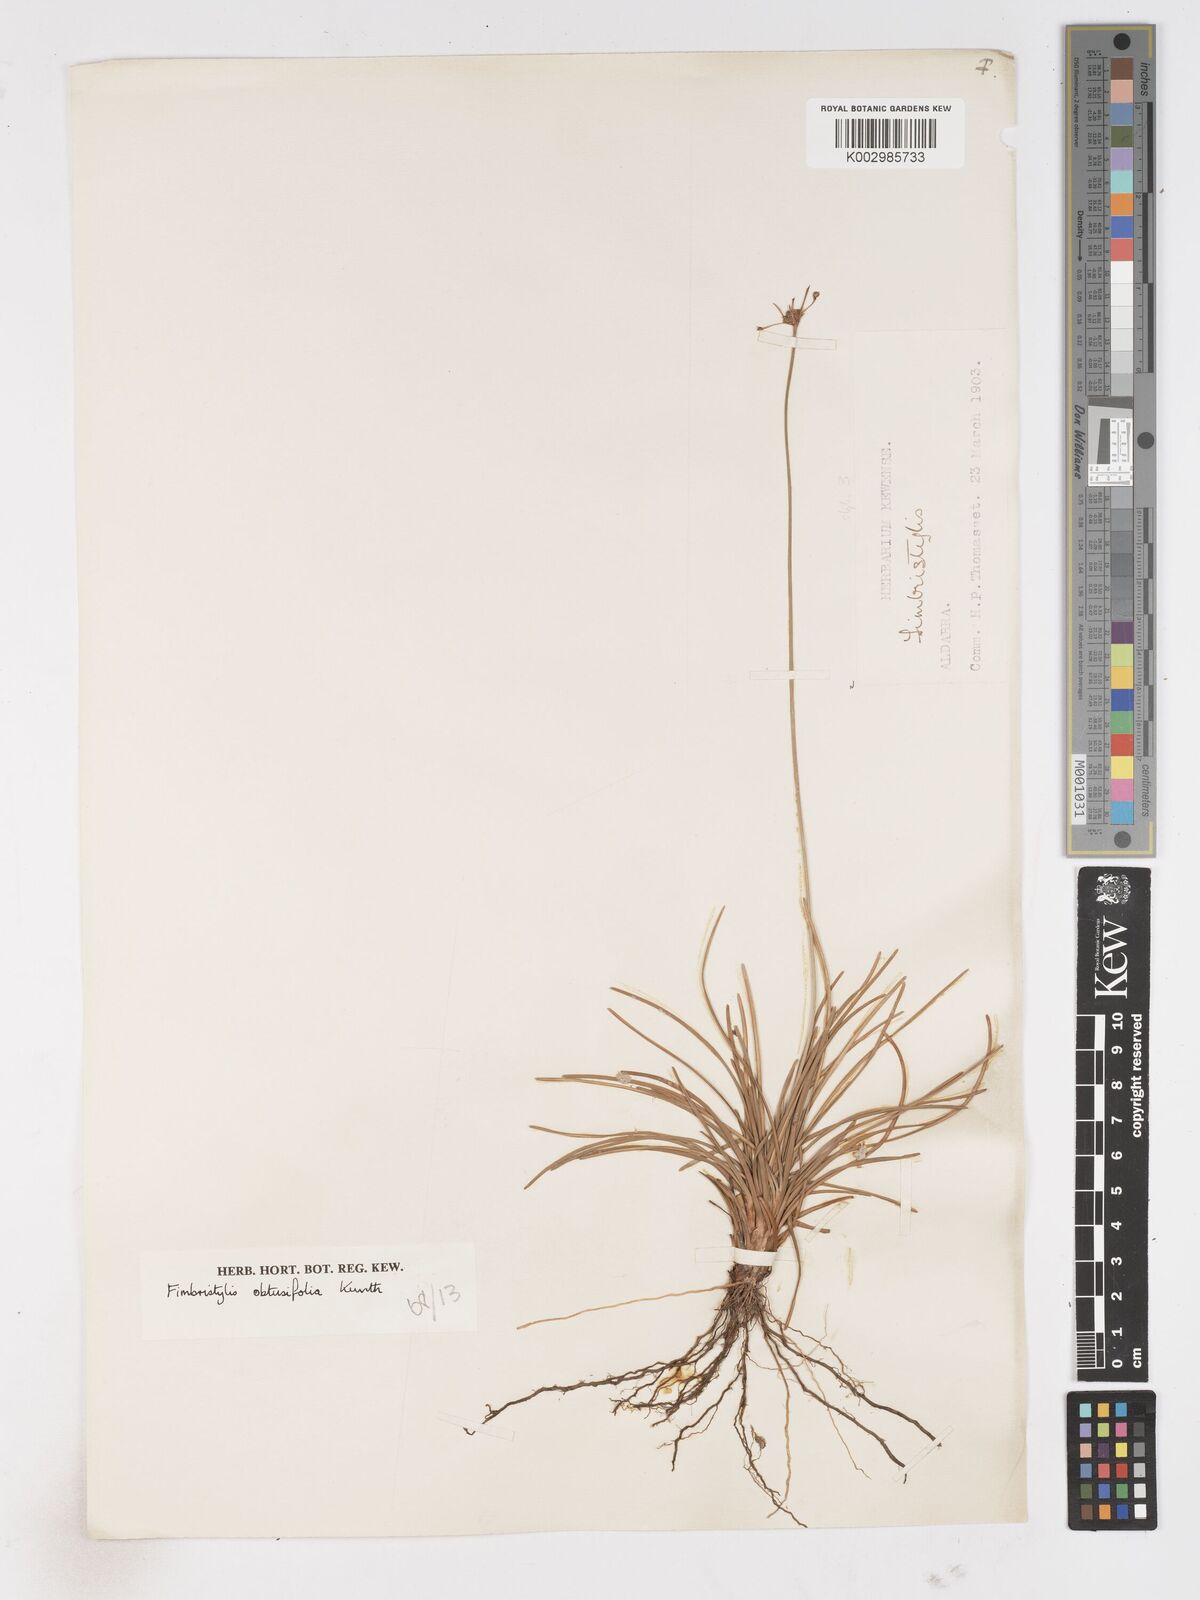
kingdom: Plantae
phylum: Tracheophyta
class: Liliopsida
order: Poales
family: Cyperaceae
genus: Fimbristylis
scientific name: Fimbristylis cymosa
